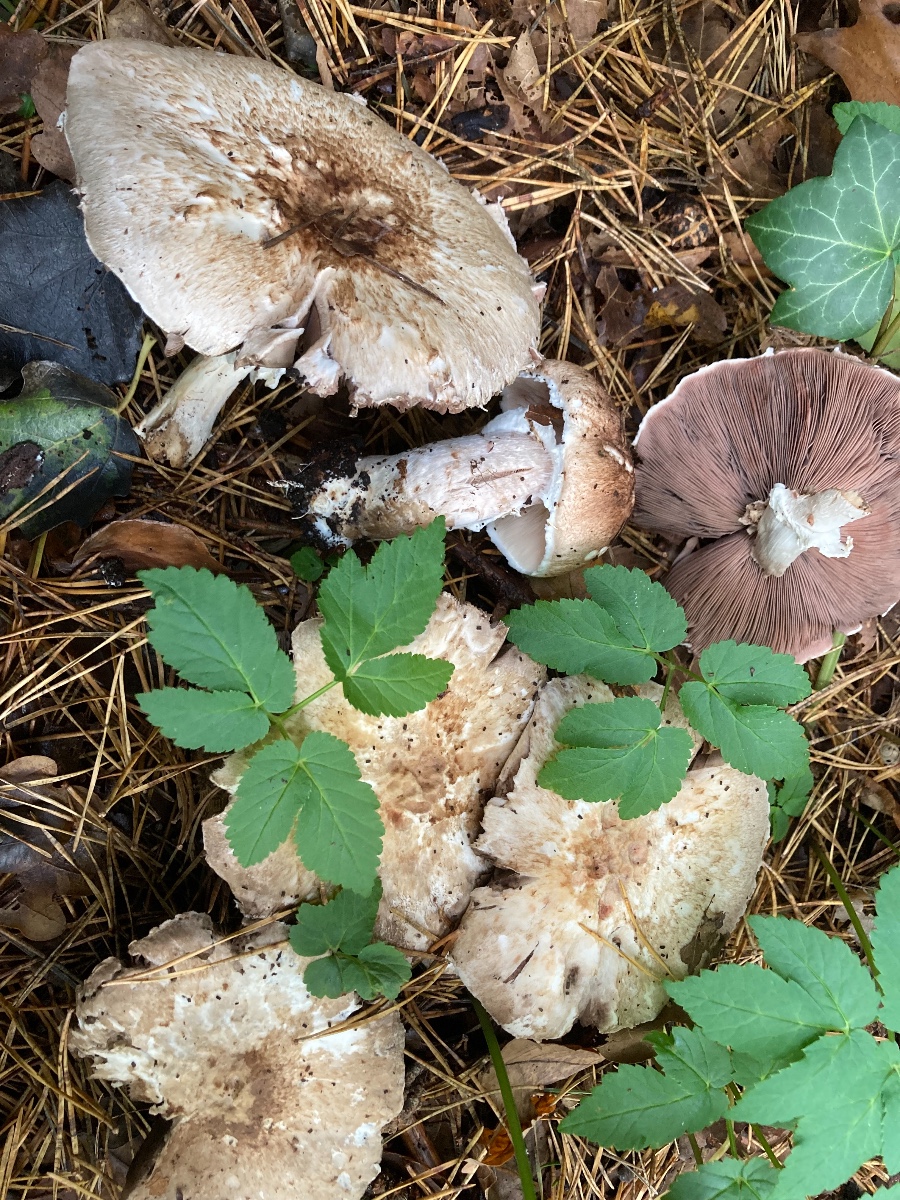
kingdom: Fungi
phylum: Basidiomycota
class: Agaricomycetes
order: Agaricales
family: Agaricaceae
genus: Agaricus
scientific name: Agaricus impudicus
